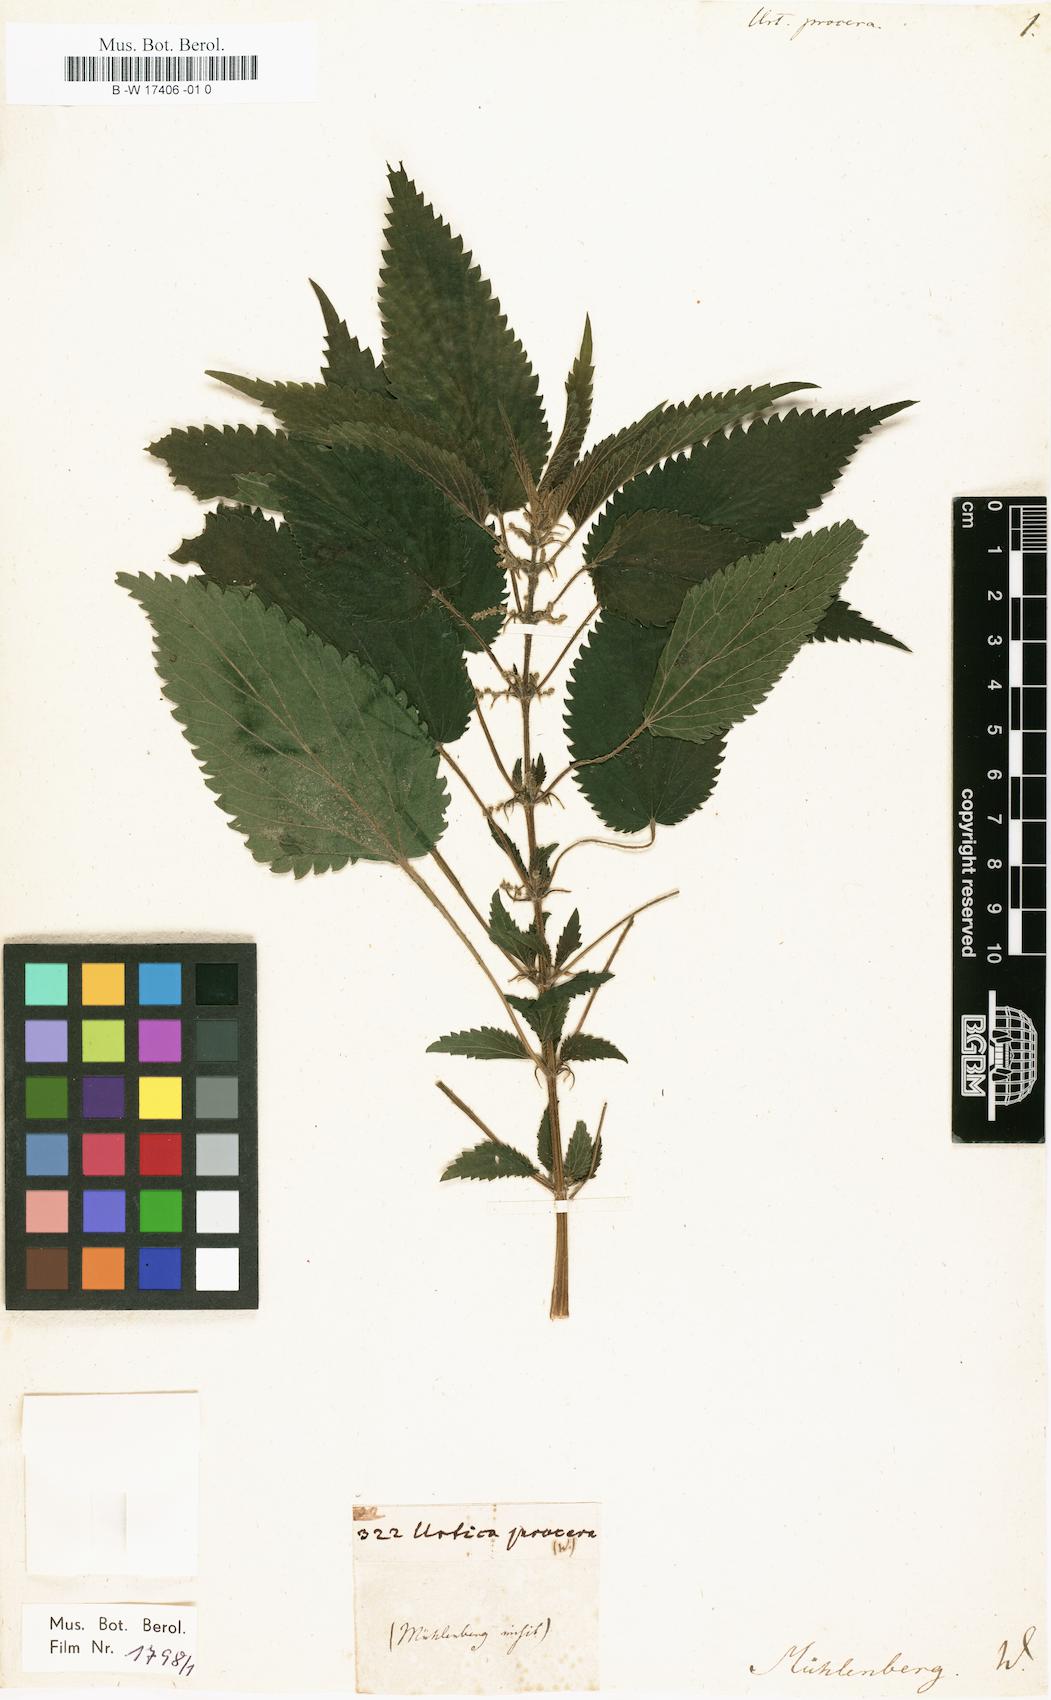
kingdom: Plantae
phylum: Tracheophyta
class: Magnoliopsida
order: Rosales
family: Urticaceae
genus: Urtica
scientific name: Urtica gracilis
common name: Slender stinging nettle
